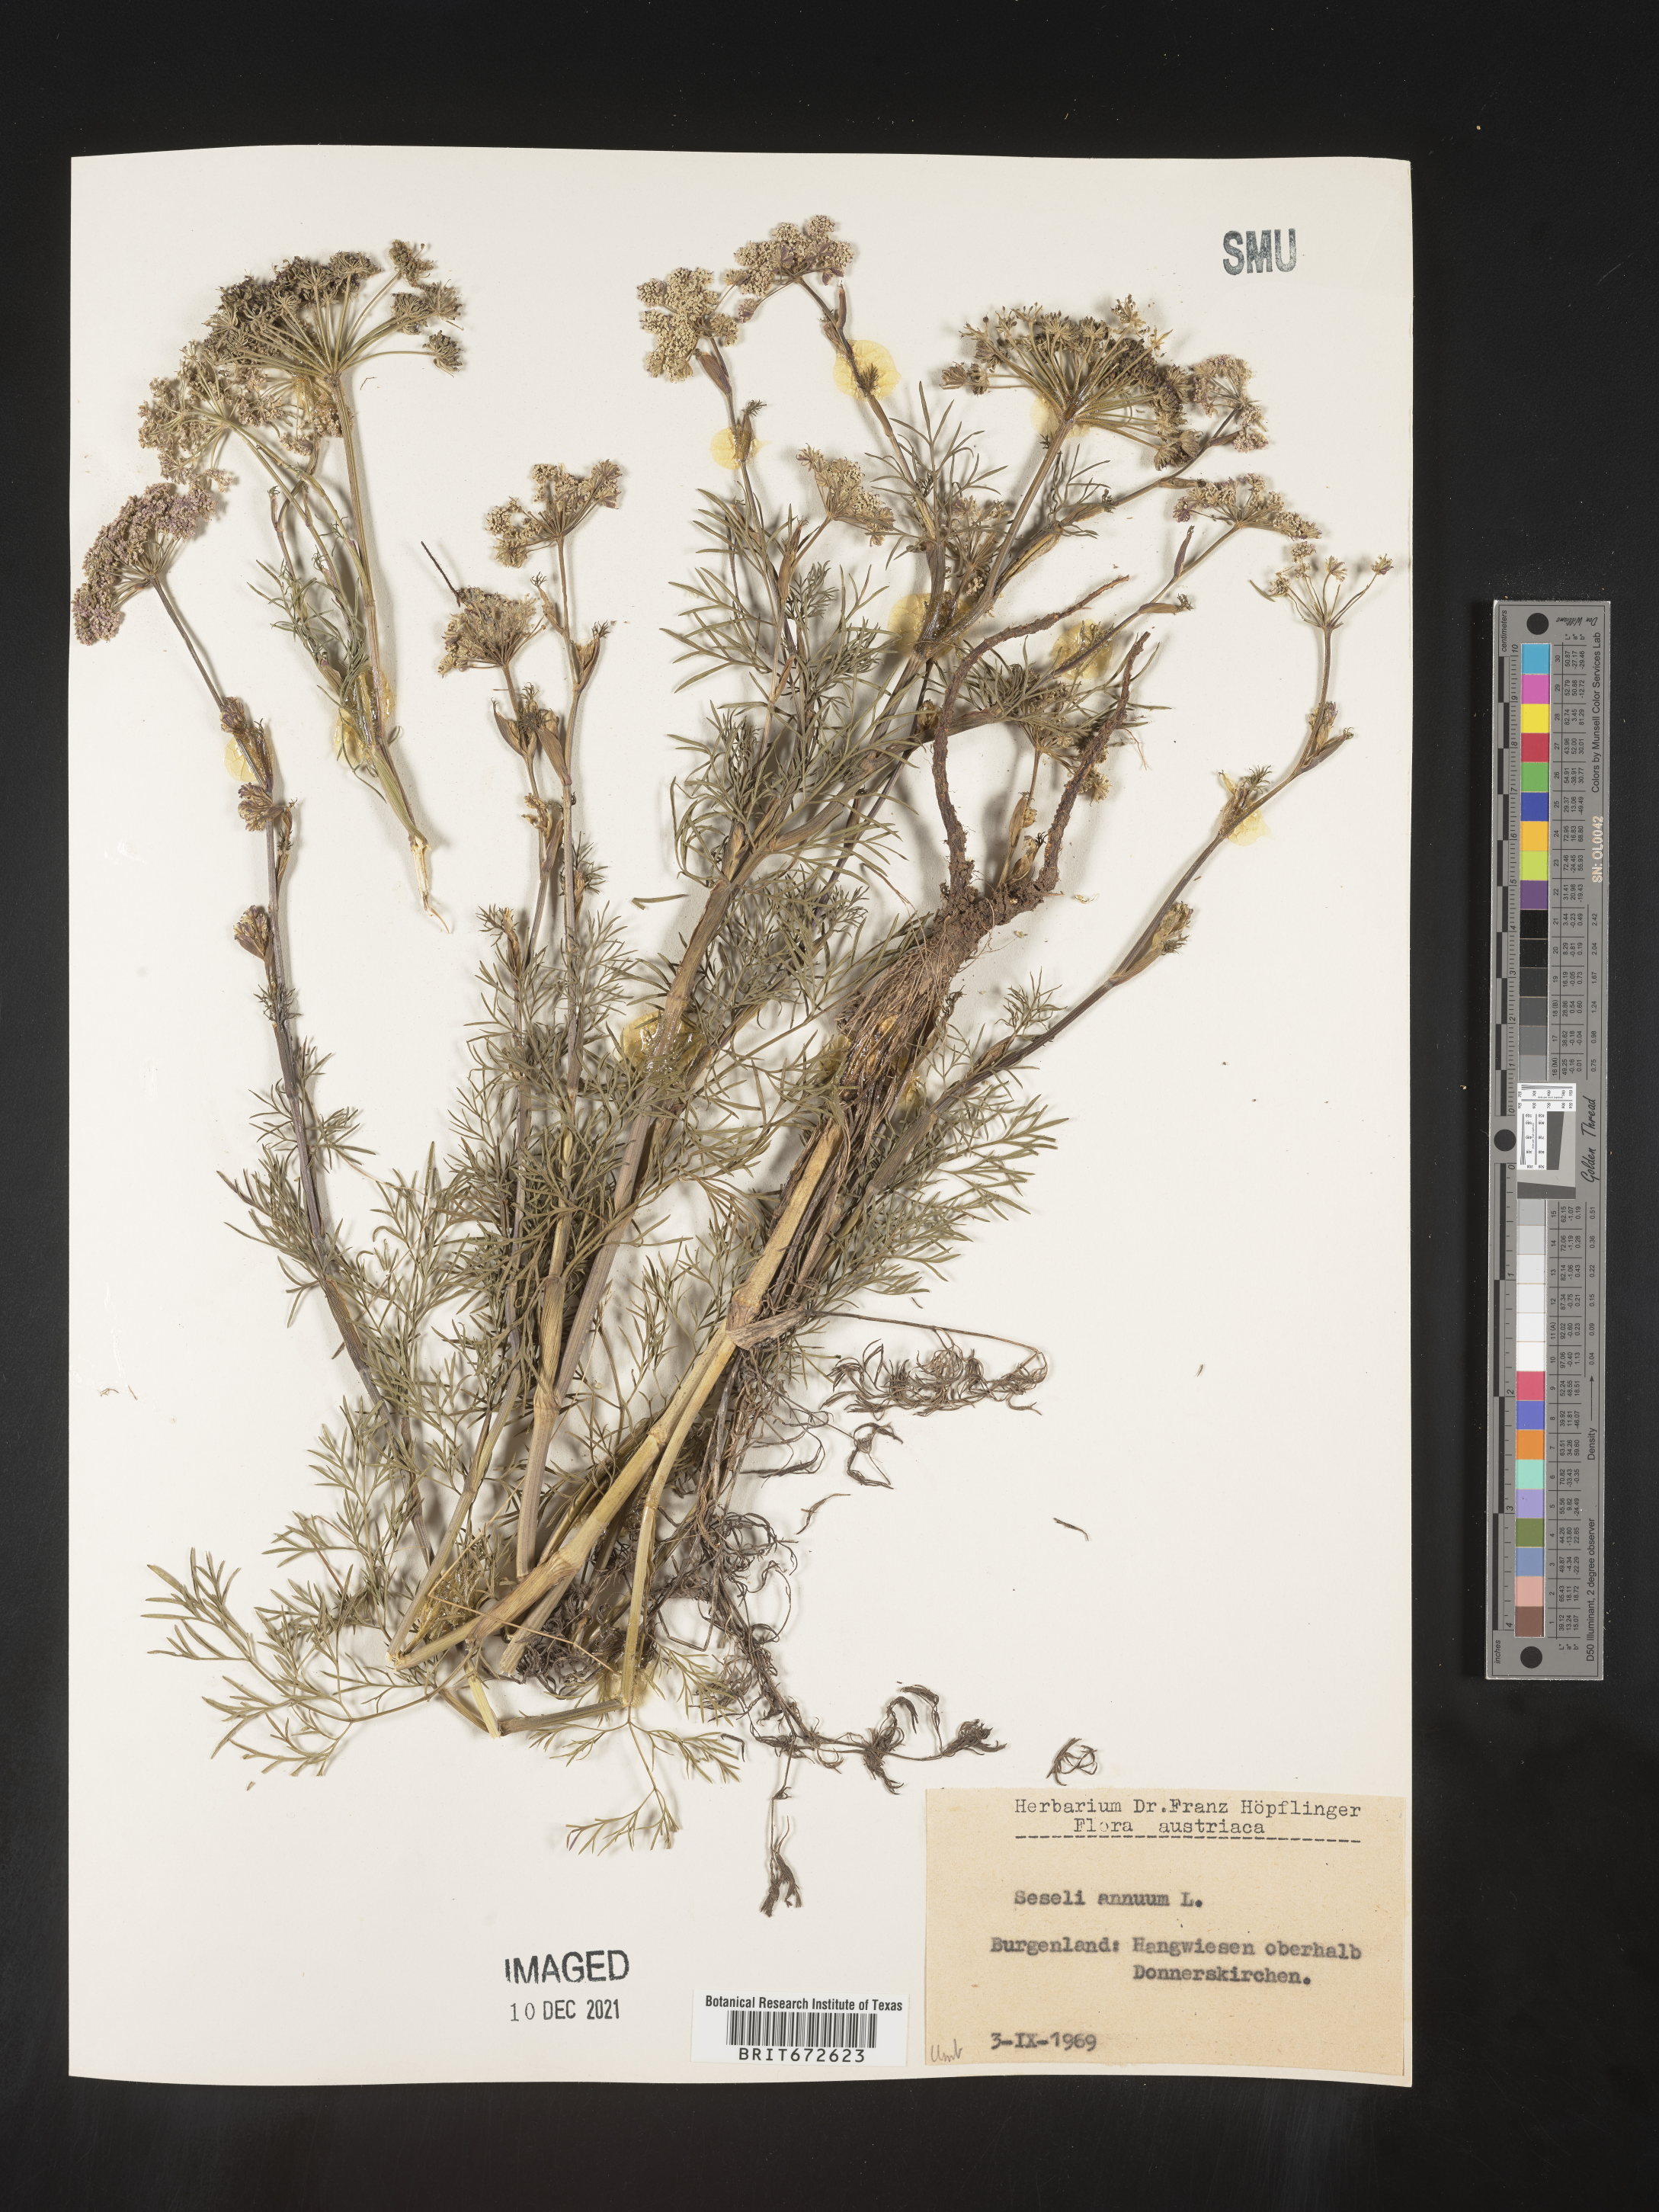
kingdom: Plantae
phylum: Tracheophyta
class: Magnoliopsida
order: Apiales
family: Apiaceae
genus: Seseli
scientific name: Seseli
